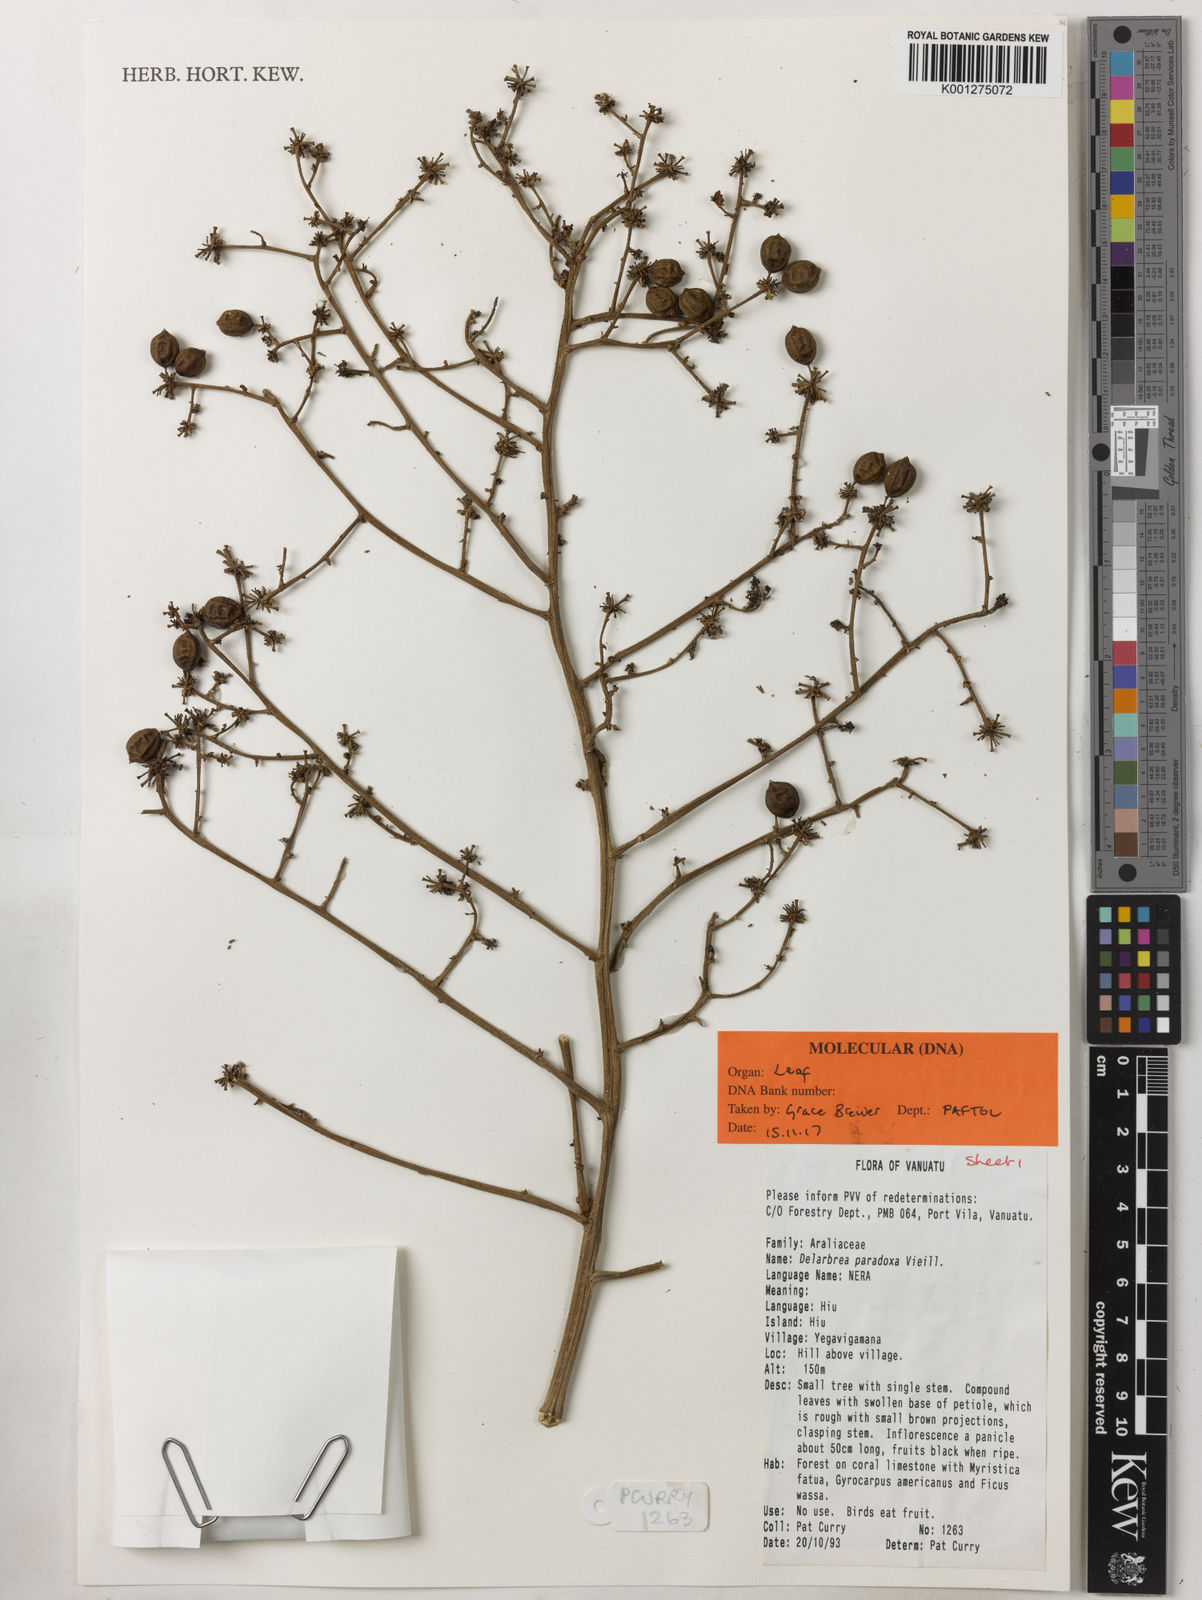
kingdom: Plantae
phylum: Tracheophyta
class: Magnoliopsida
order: Apiales
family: Myodocarpaceae
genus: Delarbrea
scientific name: Delarbrea paradoxa
